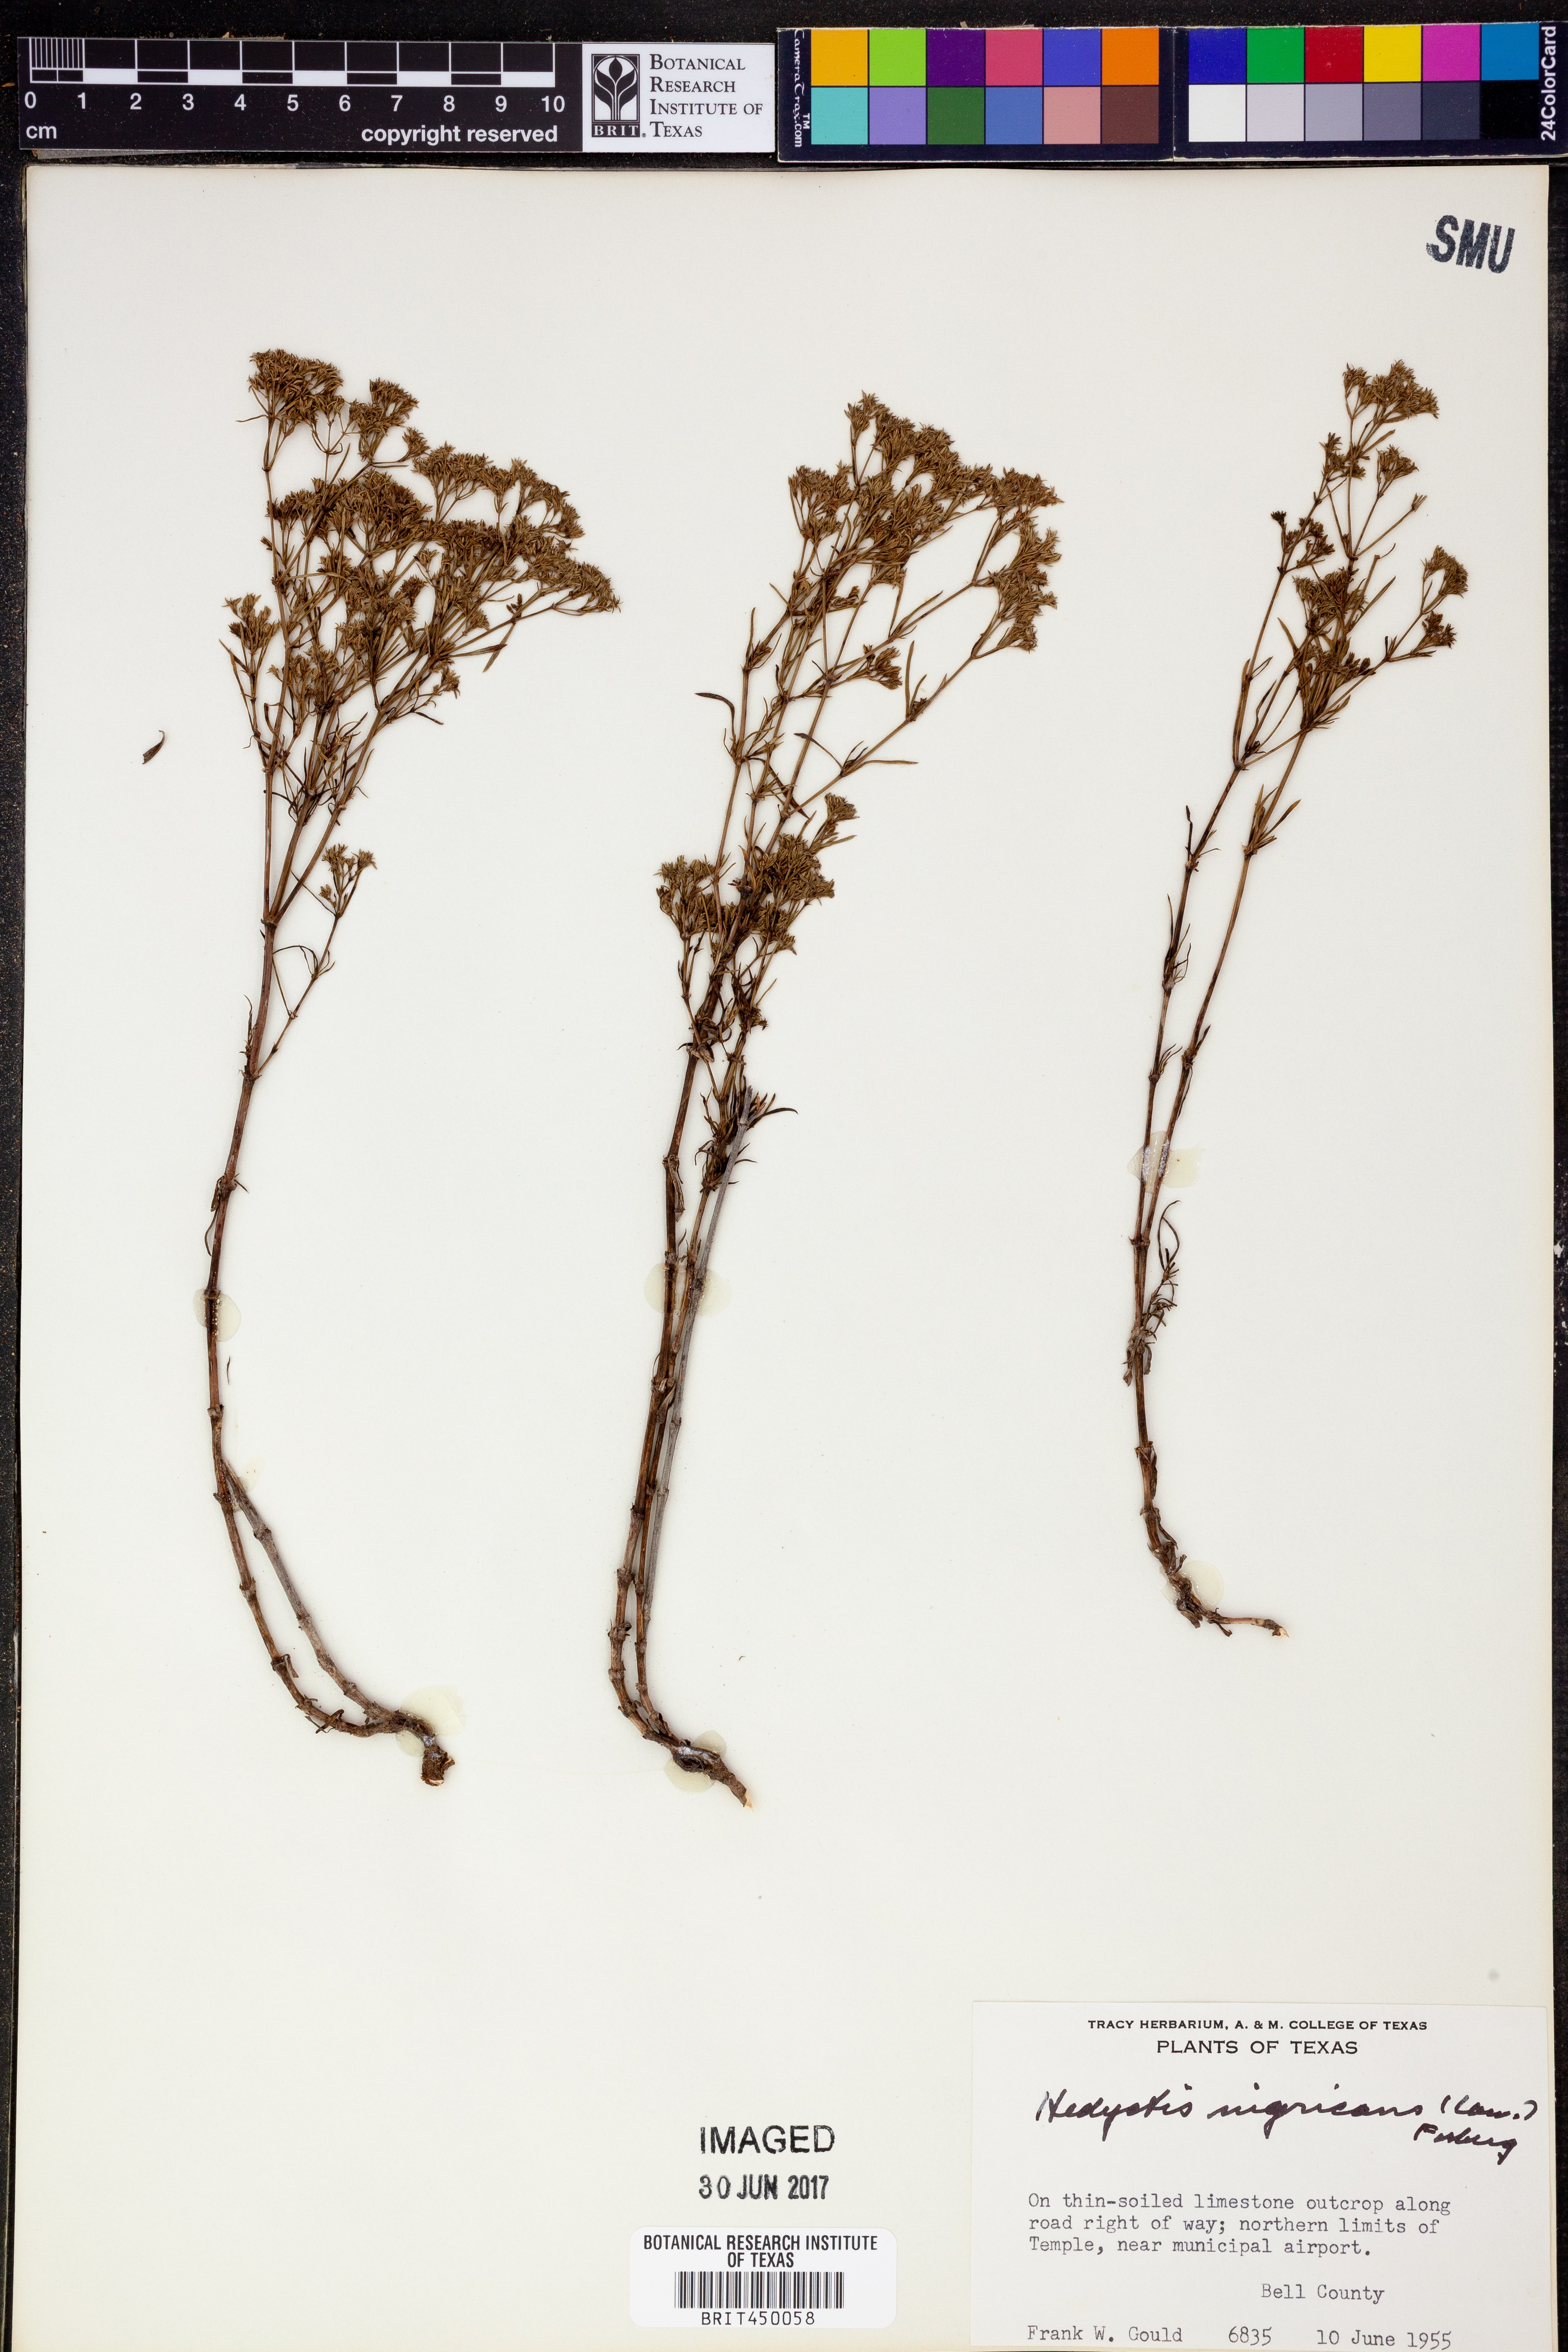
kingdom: Plantae
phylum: Tracheophyta
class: Magnoliopsida
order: Gentianales
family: Rubiaceae
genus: Stenaria
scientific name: Stenaria nigricans
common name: Diamondflowers
